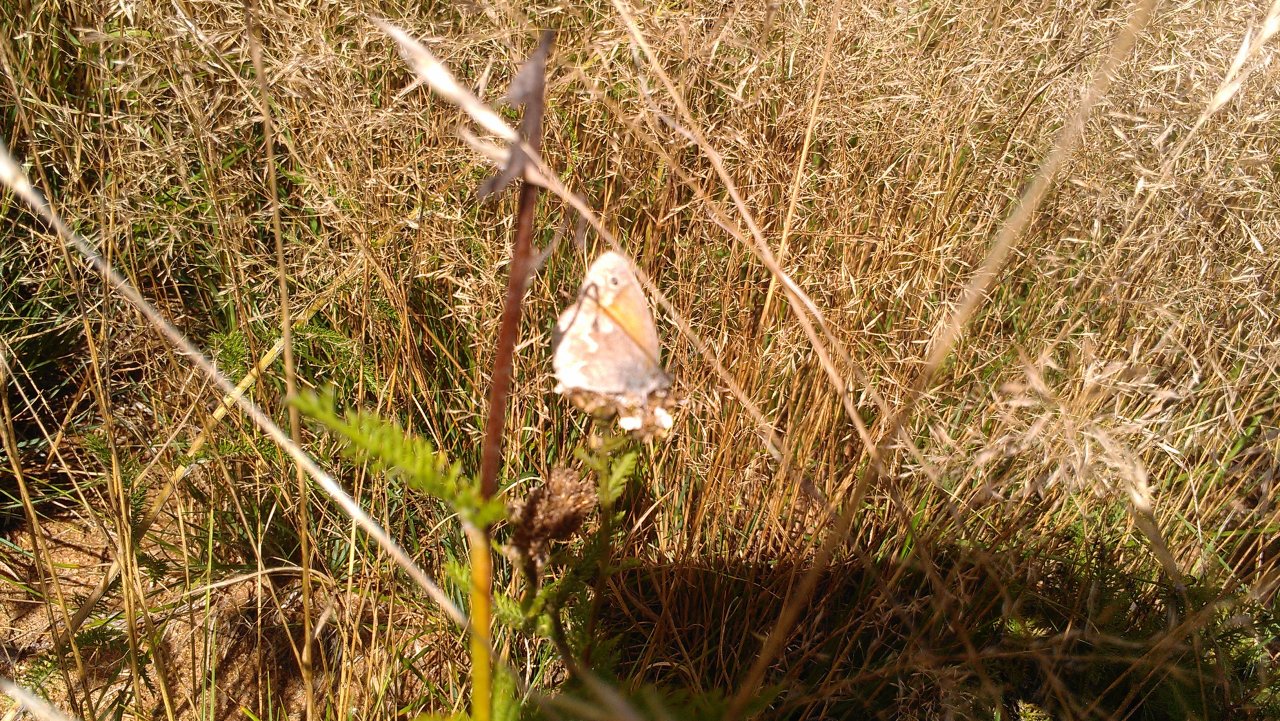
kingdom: Animalia
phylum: Arthropoda
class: Insecta
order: Lepidoptera
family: Nymphalidae
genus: Coenonympha
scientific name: Coenonympha tullia
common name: Large Heath
